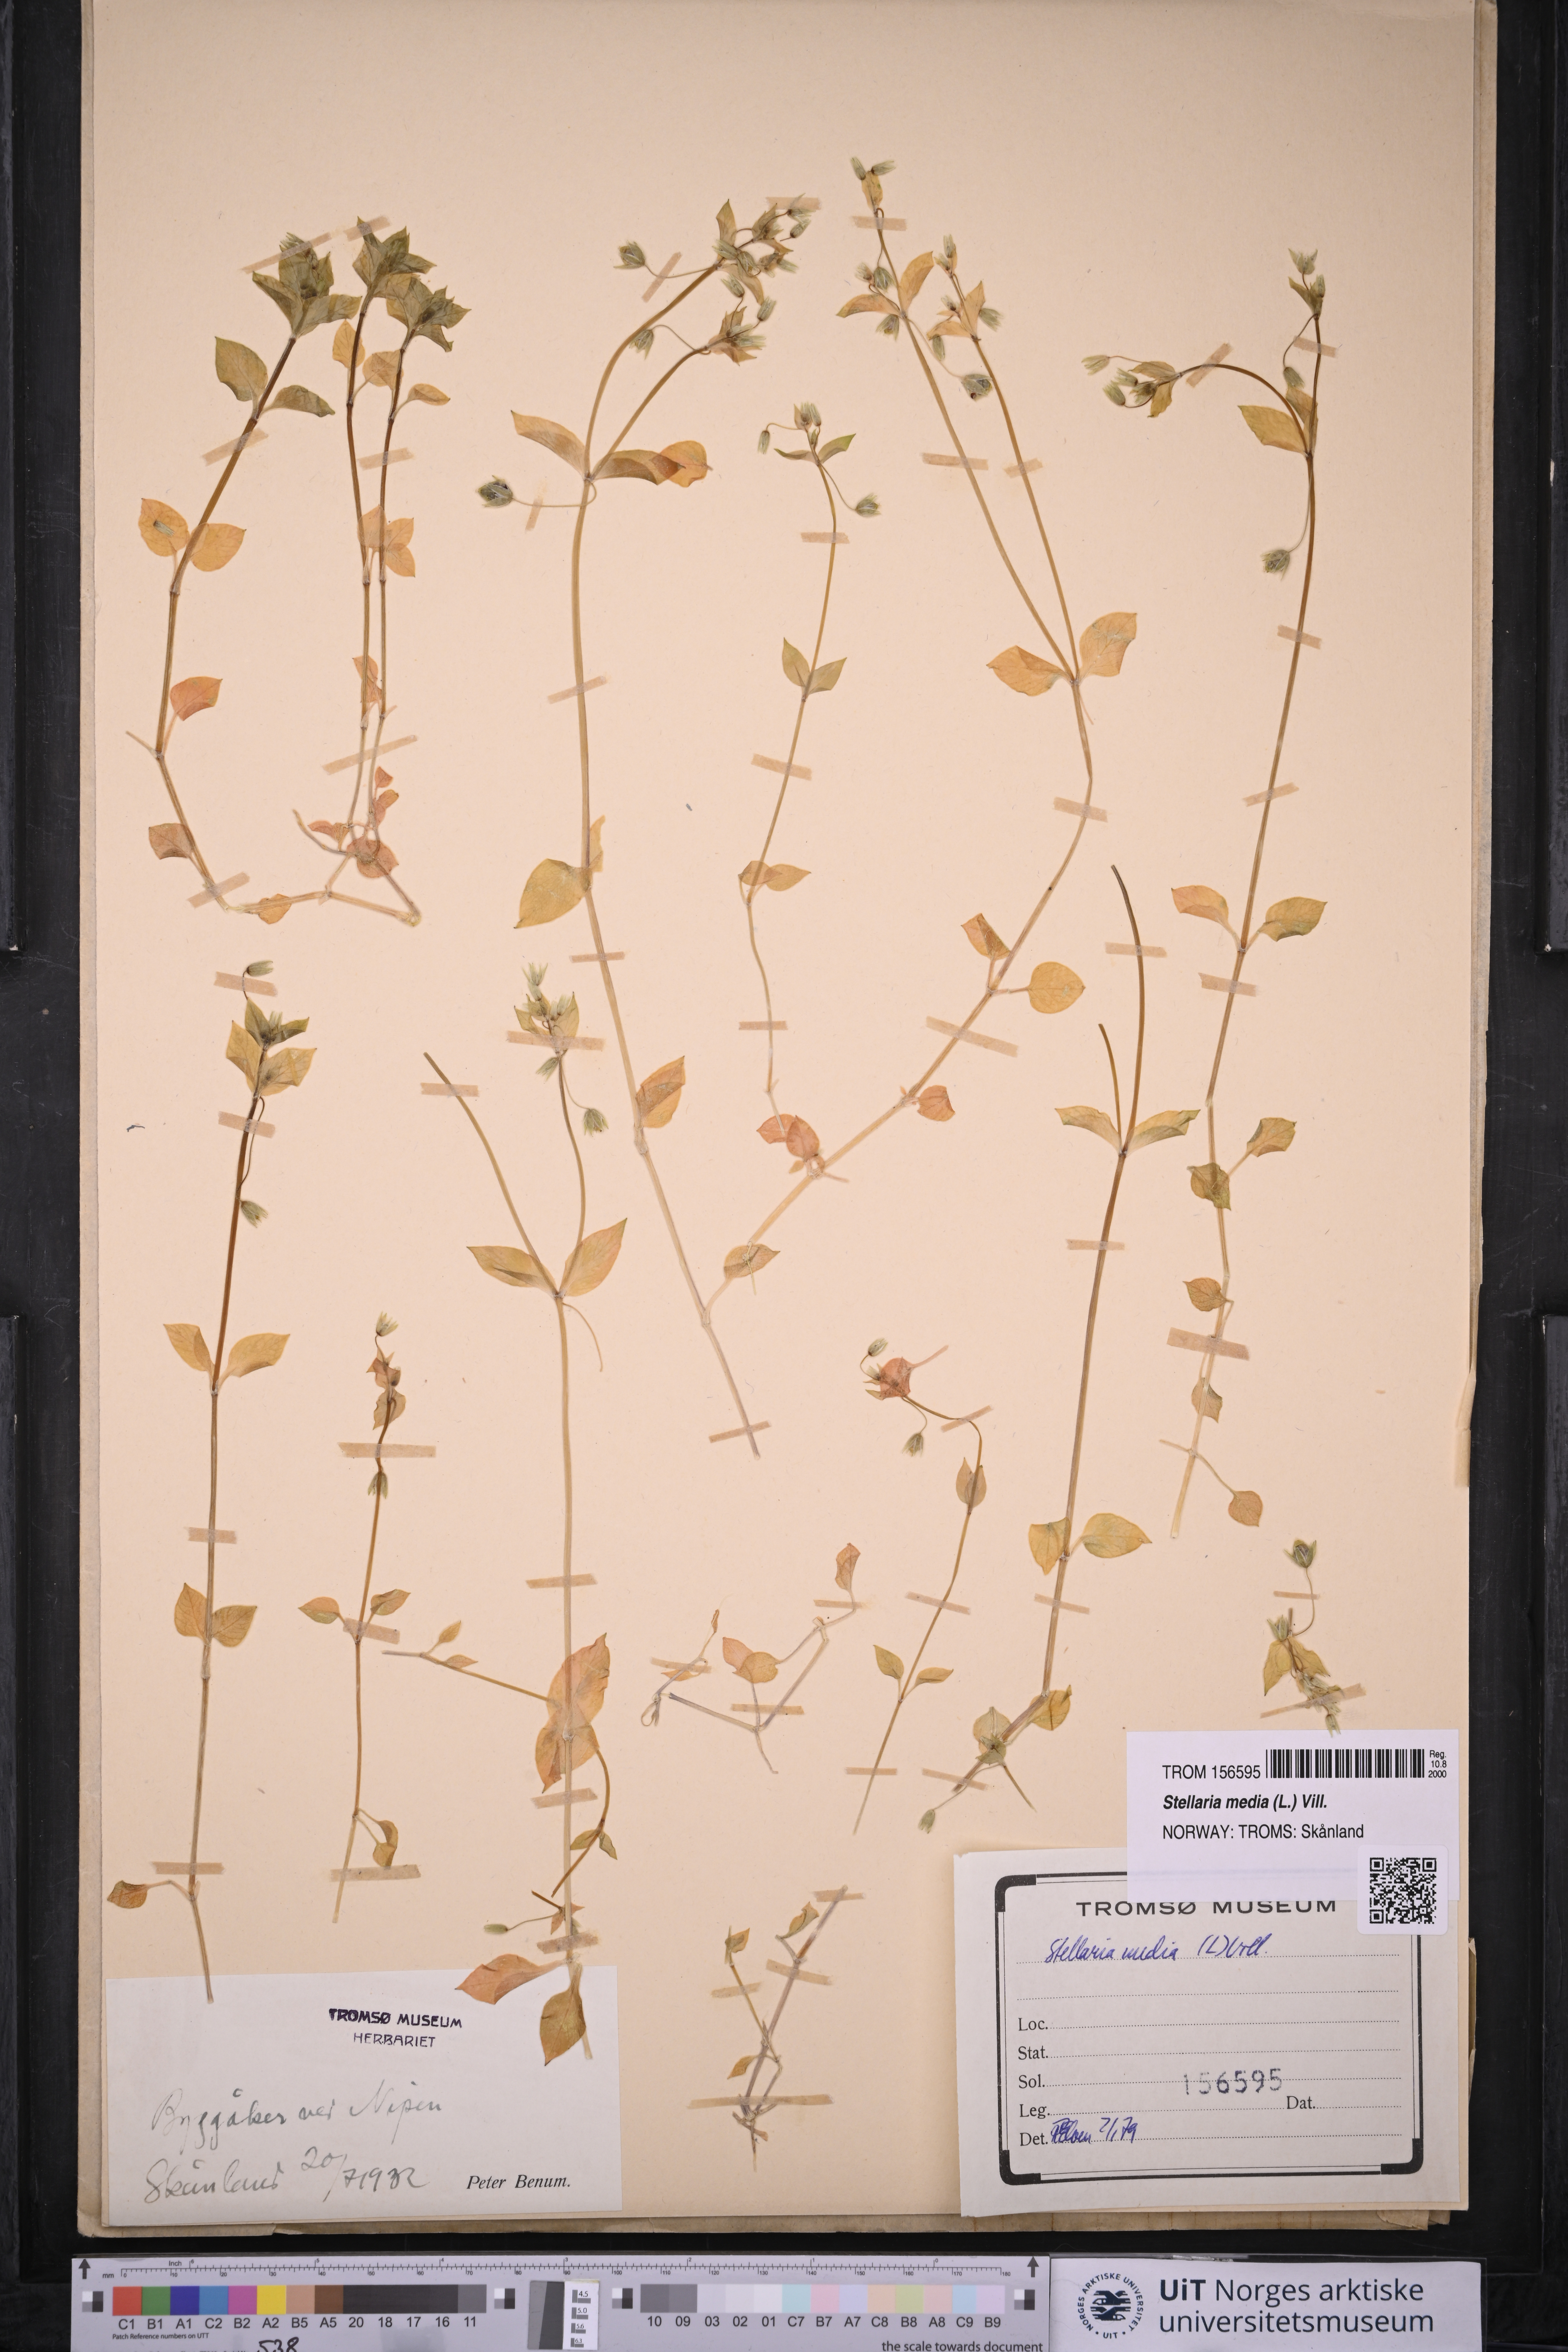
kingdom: Plantae
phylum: Tracheophyta
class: Magnoliopsida
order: Caryophyllales
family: Caryophyllaceae
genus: Stellaria
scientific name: Stellaria media
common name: Common chickweed
